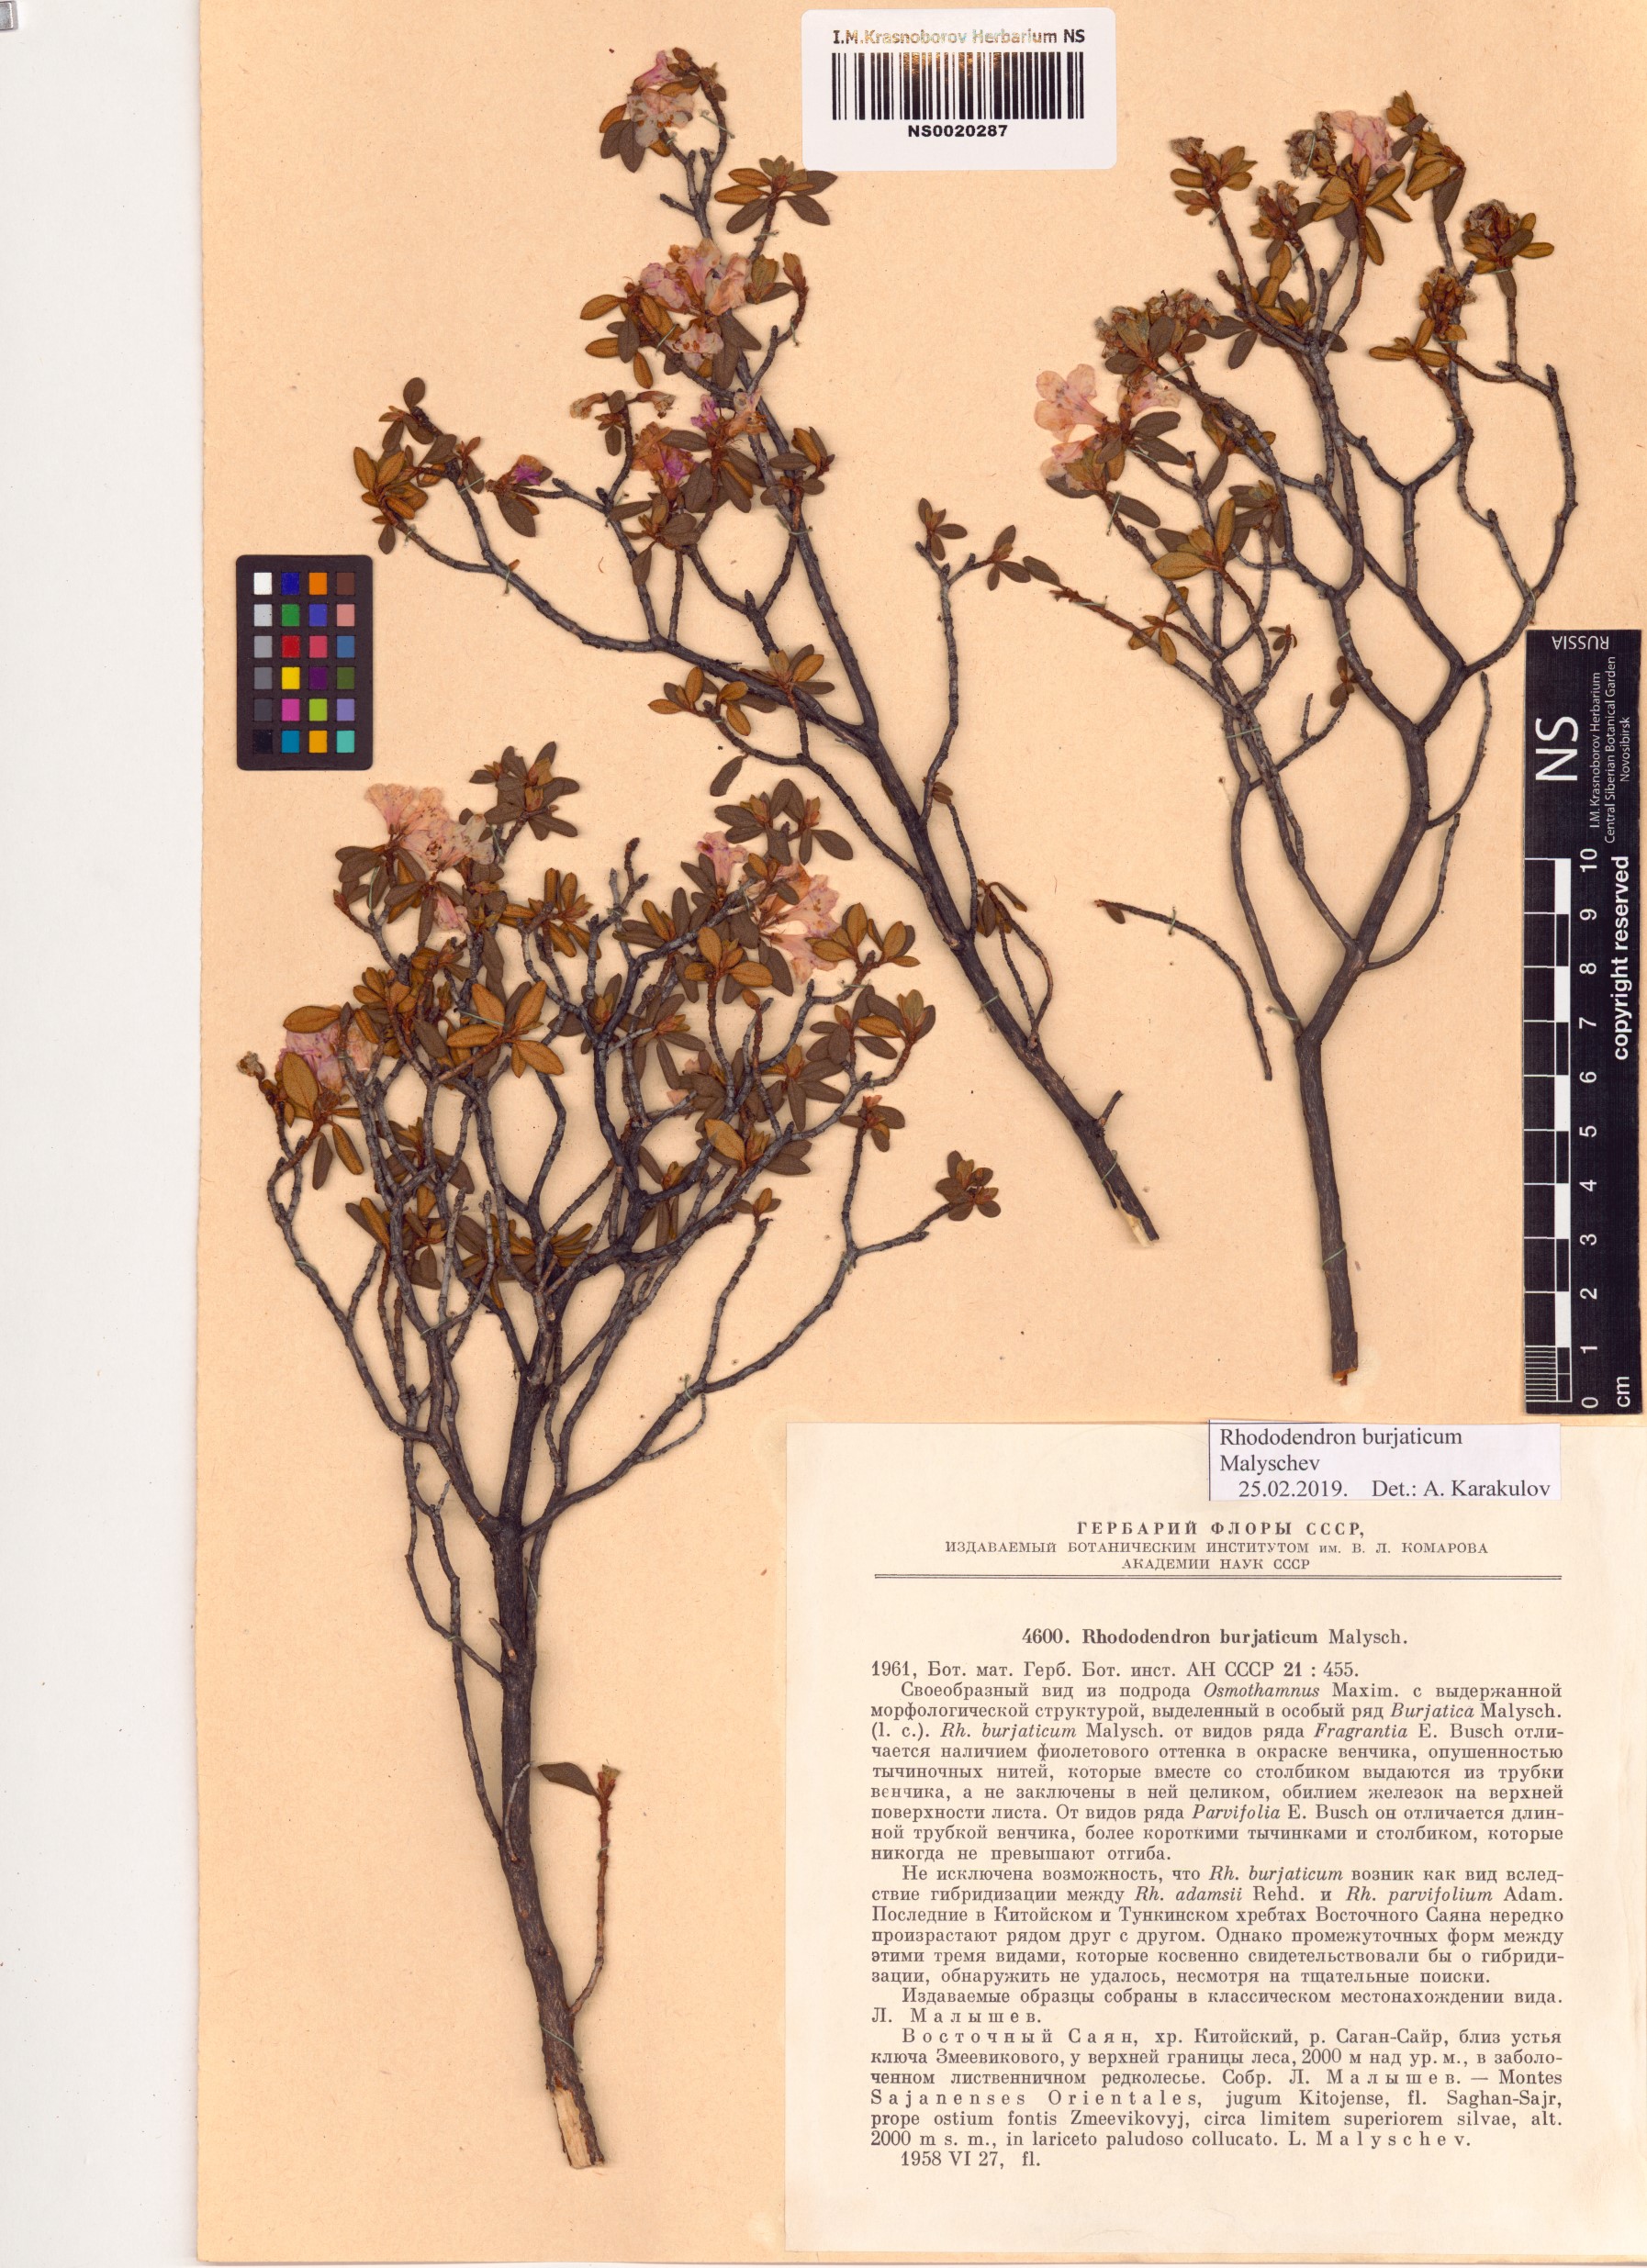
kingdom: Plantae
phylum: Tracheophyta
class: Magnoliopsida
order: Ericales
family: Ericaceae
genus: Rhododendron
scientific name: Rhododendron burjaticum
